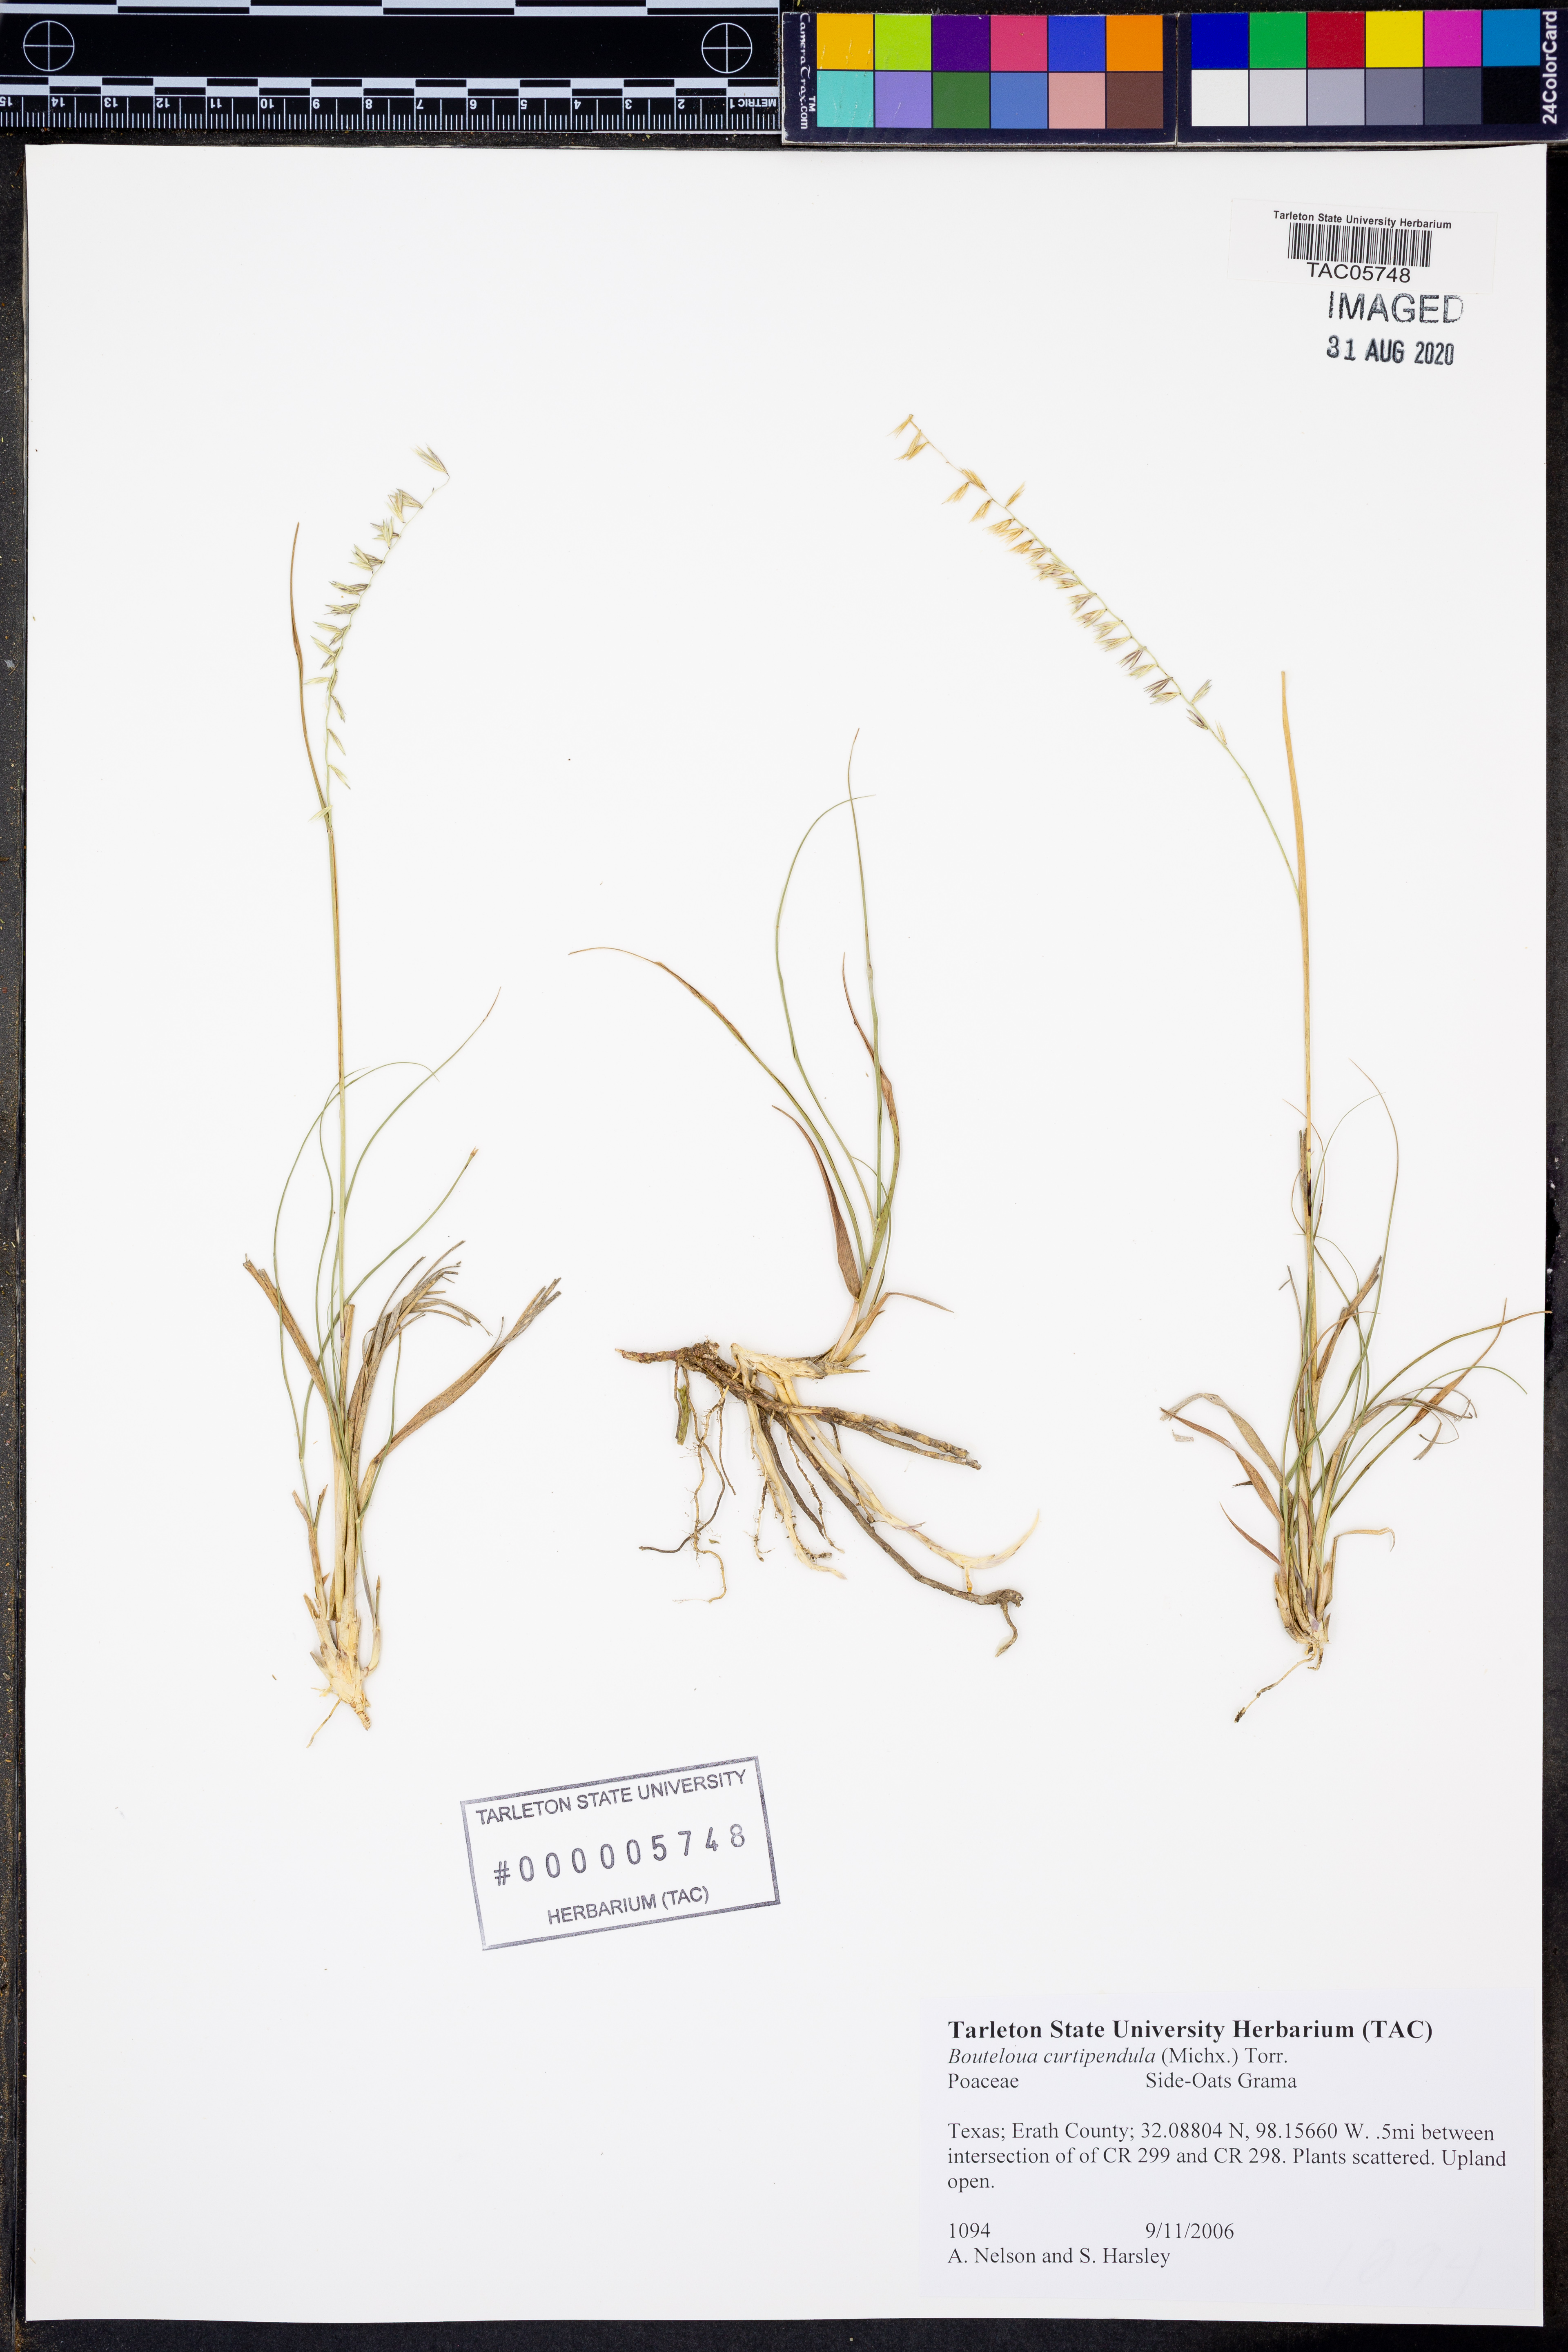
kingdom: Plantae
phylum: Tracheophyta
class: Liliopsida
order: Poales
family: Poaceae
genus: Bouteloua
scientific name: Bouteloua curtipendula
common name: Side-oats grama
